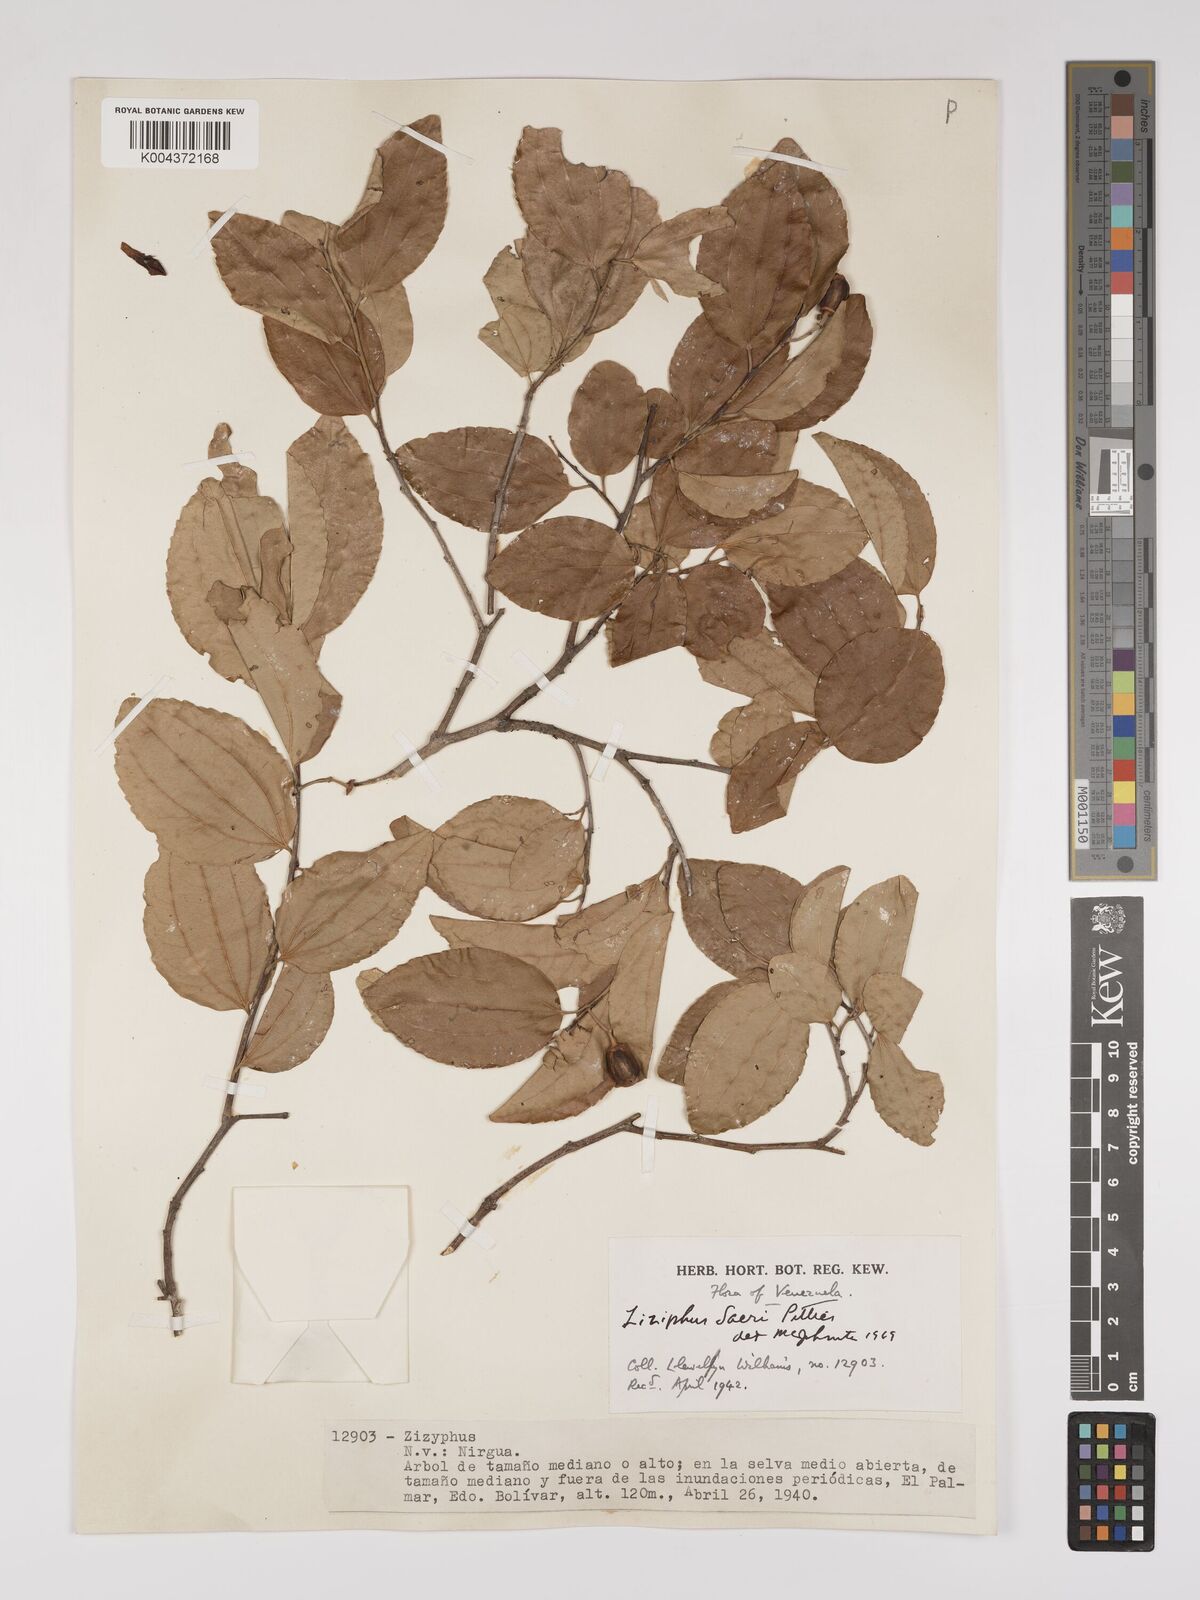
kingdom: Plantae
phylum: Tracheophyta
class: Magnoliopsida
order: Rosales
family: Rhamnaceae
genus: Sarcomphalus
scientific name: Sarcomphalus saeri
